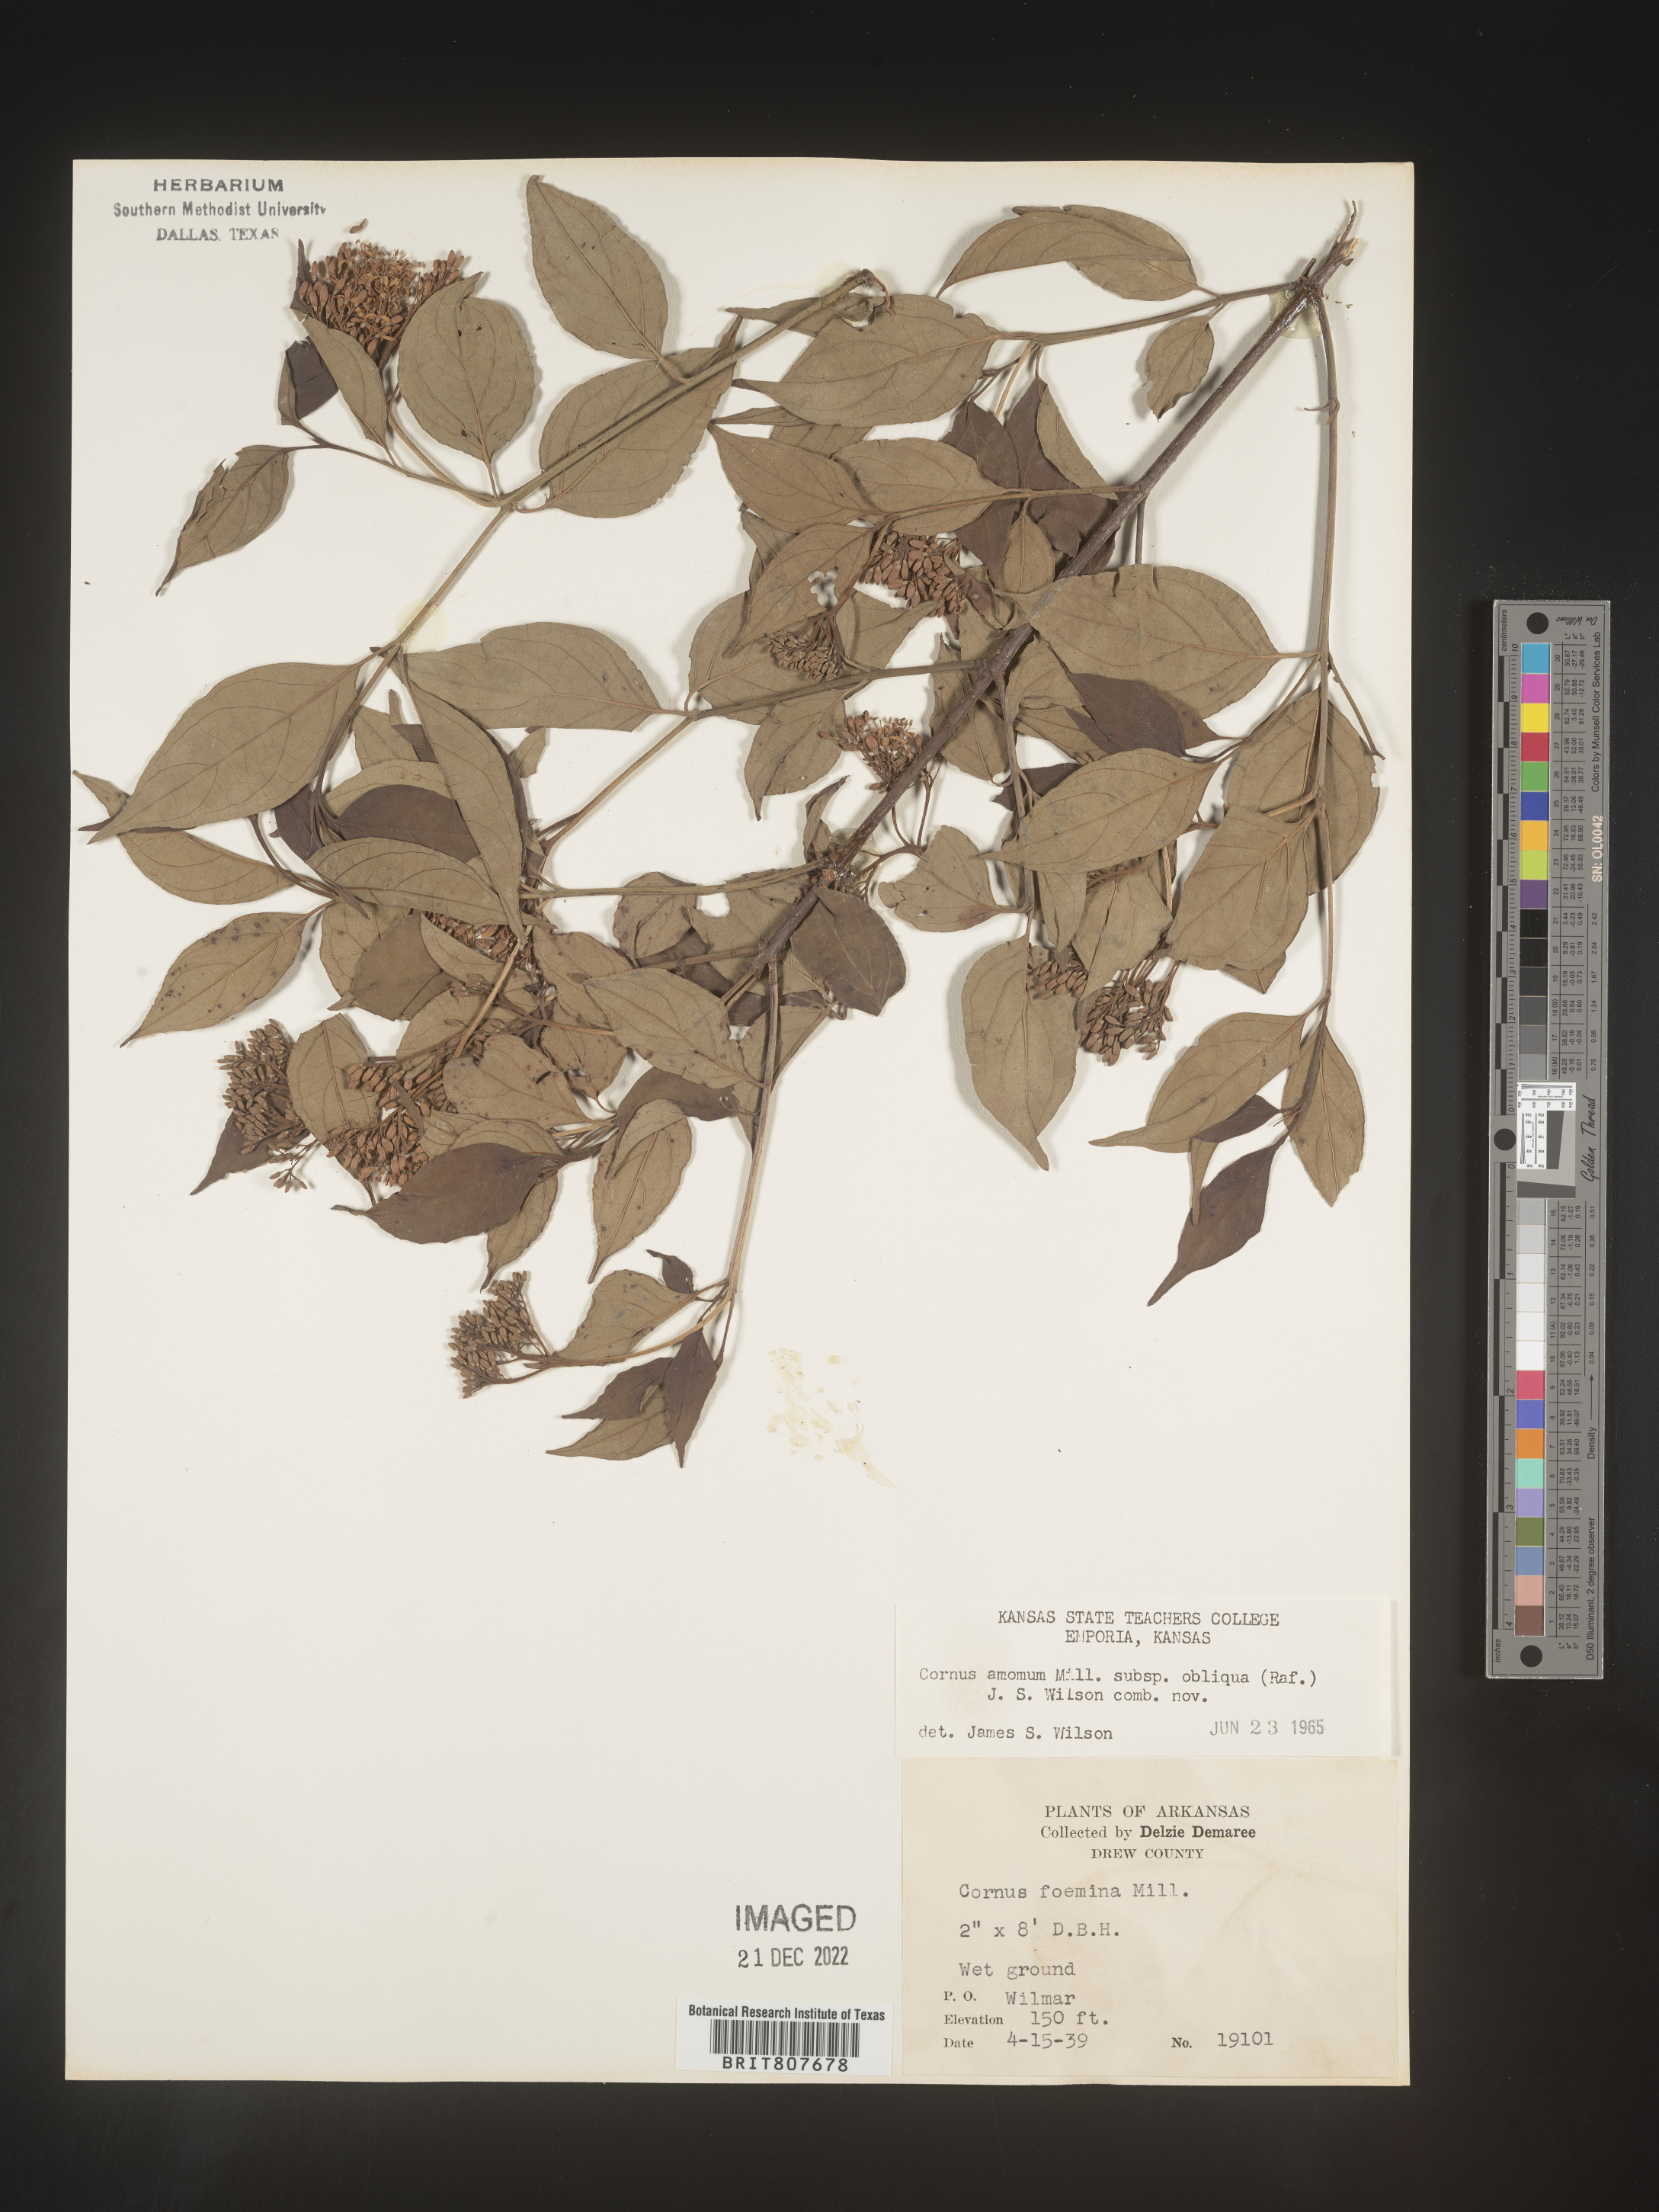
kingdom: Plantae
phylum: Tracheophyta
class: Magnoliopsida
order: Cornales
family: Cornaceae
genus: Cornus
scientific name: Cornus obliqua
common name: Pale dogwood
